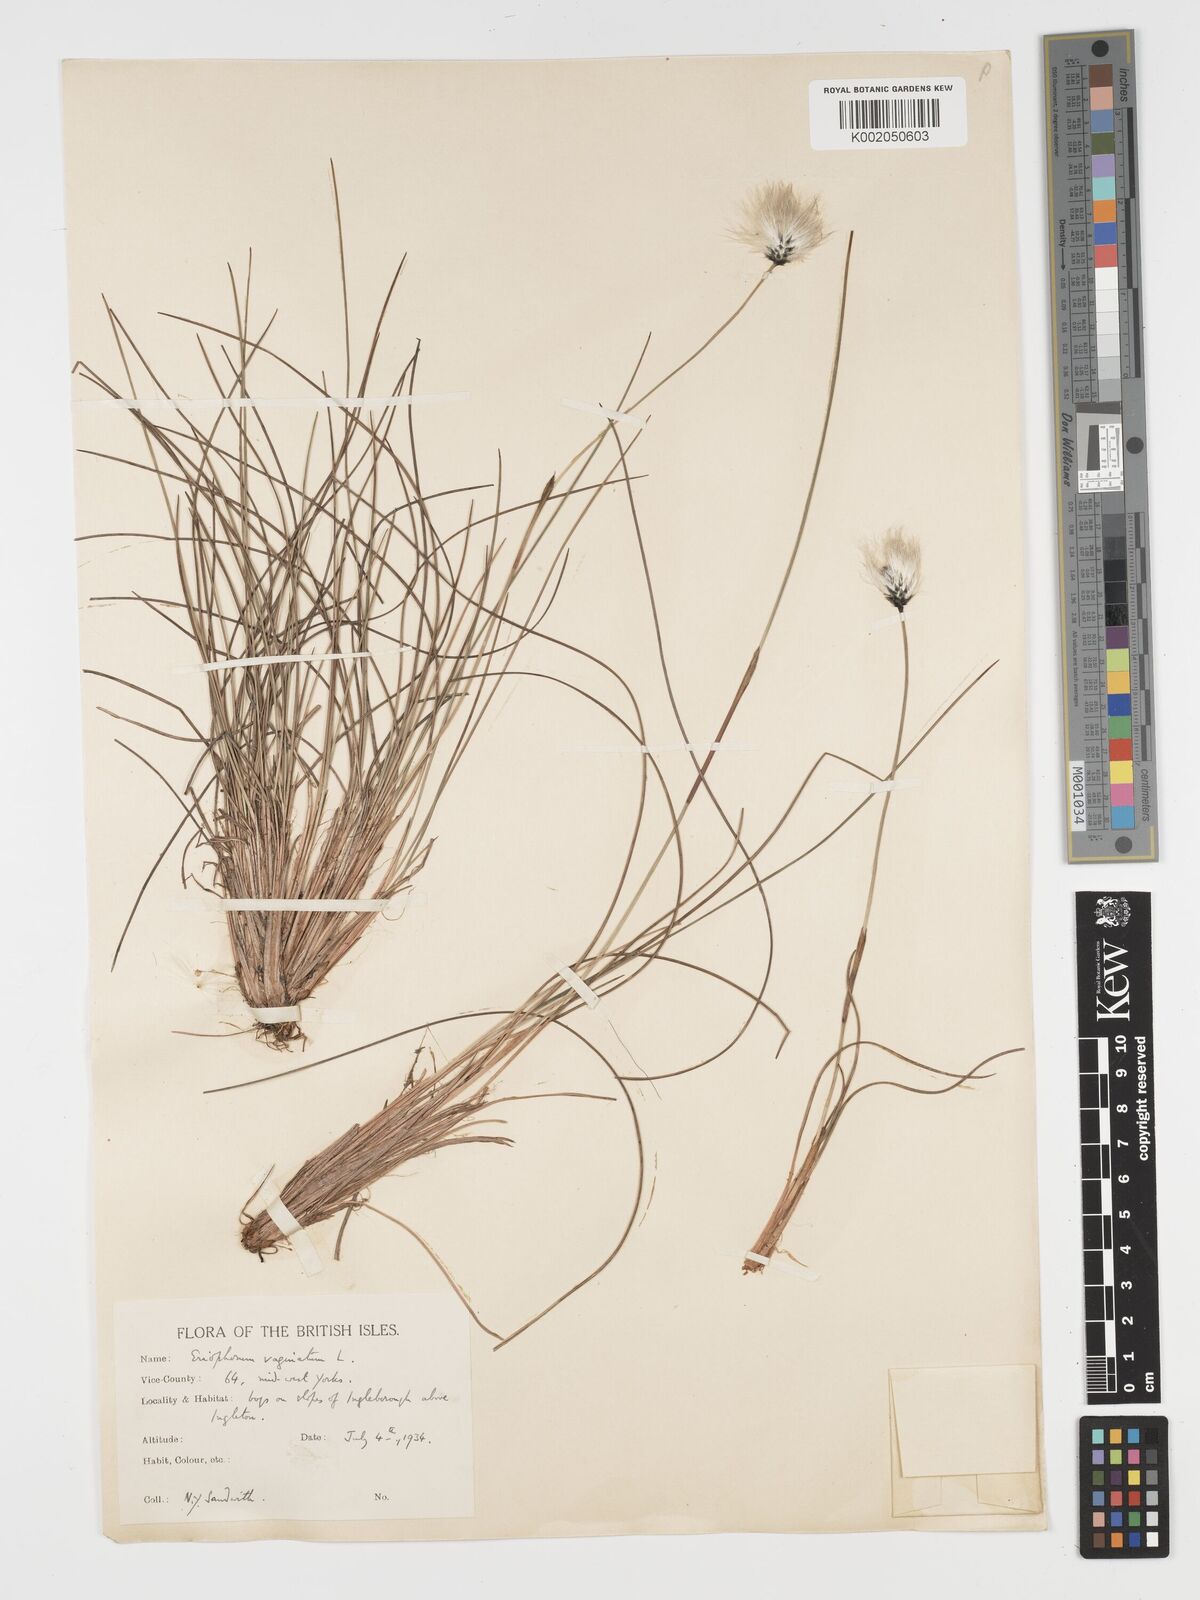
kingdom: Plantae
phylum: Tracheophyta
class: Liliopsida
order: Poales
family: Cyperaceae
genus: Eriophorum
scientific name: Eriophorum vaginatum
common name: Hare's-tail cottongrass
